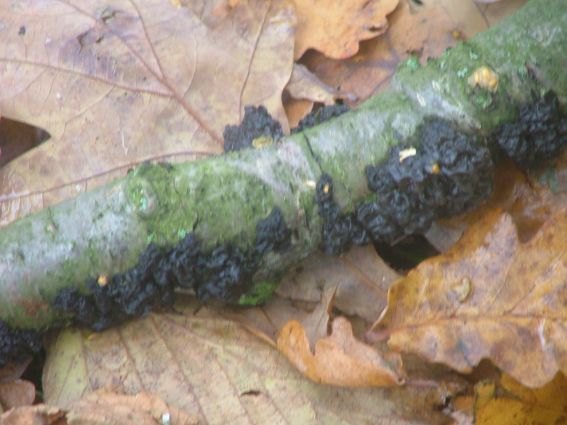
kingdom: Fungi
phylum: Basidiomycota
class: Agaricomycetes
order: Auriculariales
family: Auriculariaceae
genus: Exidia
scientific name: Exidia nigricans
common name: almindelig bævretop
